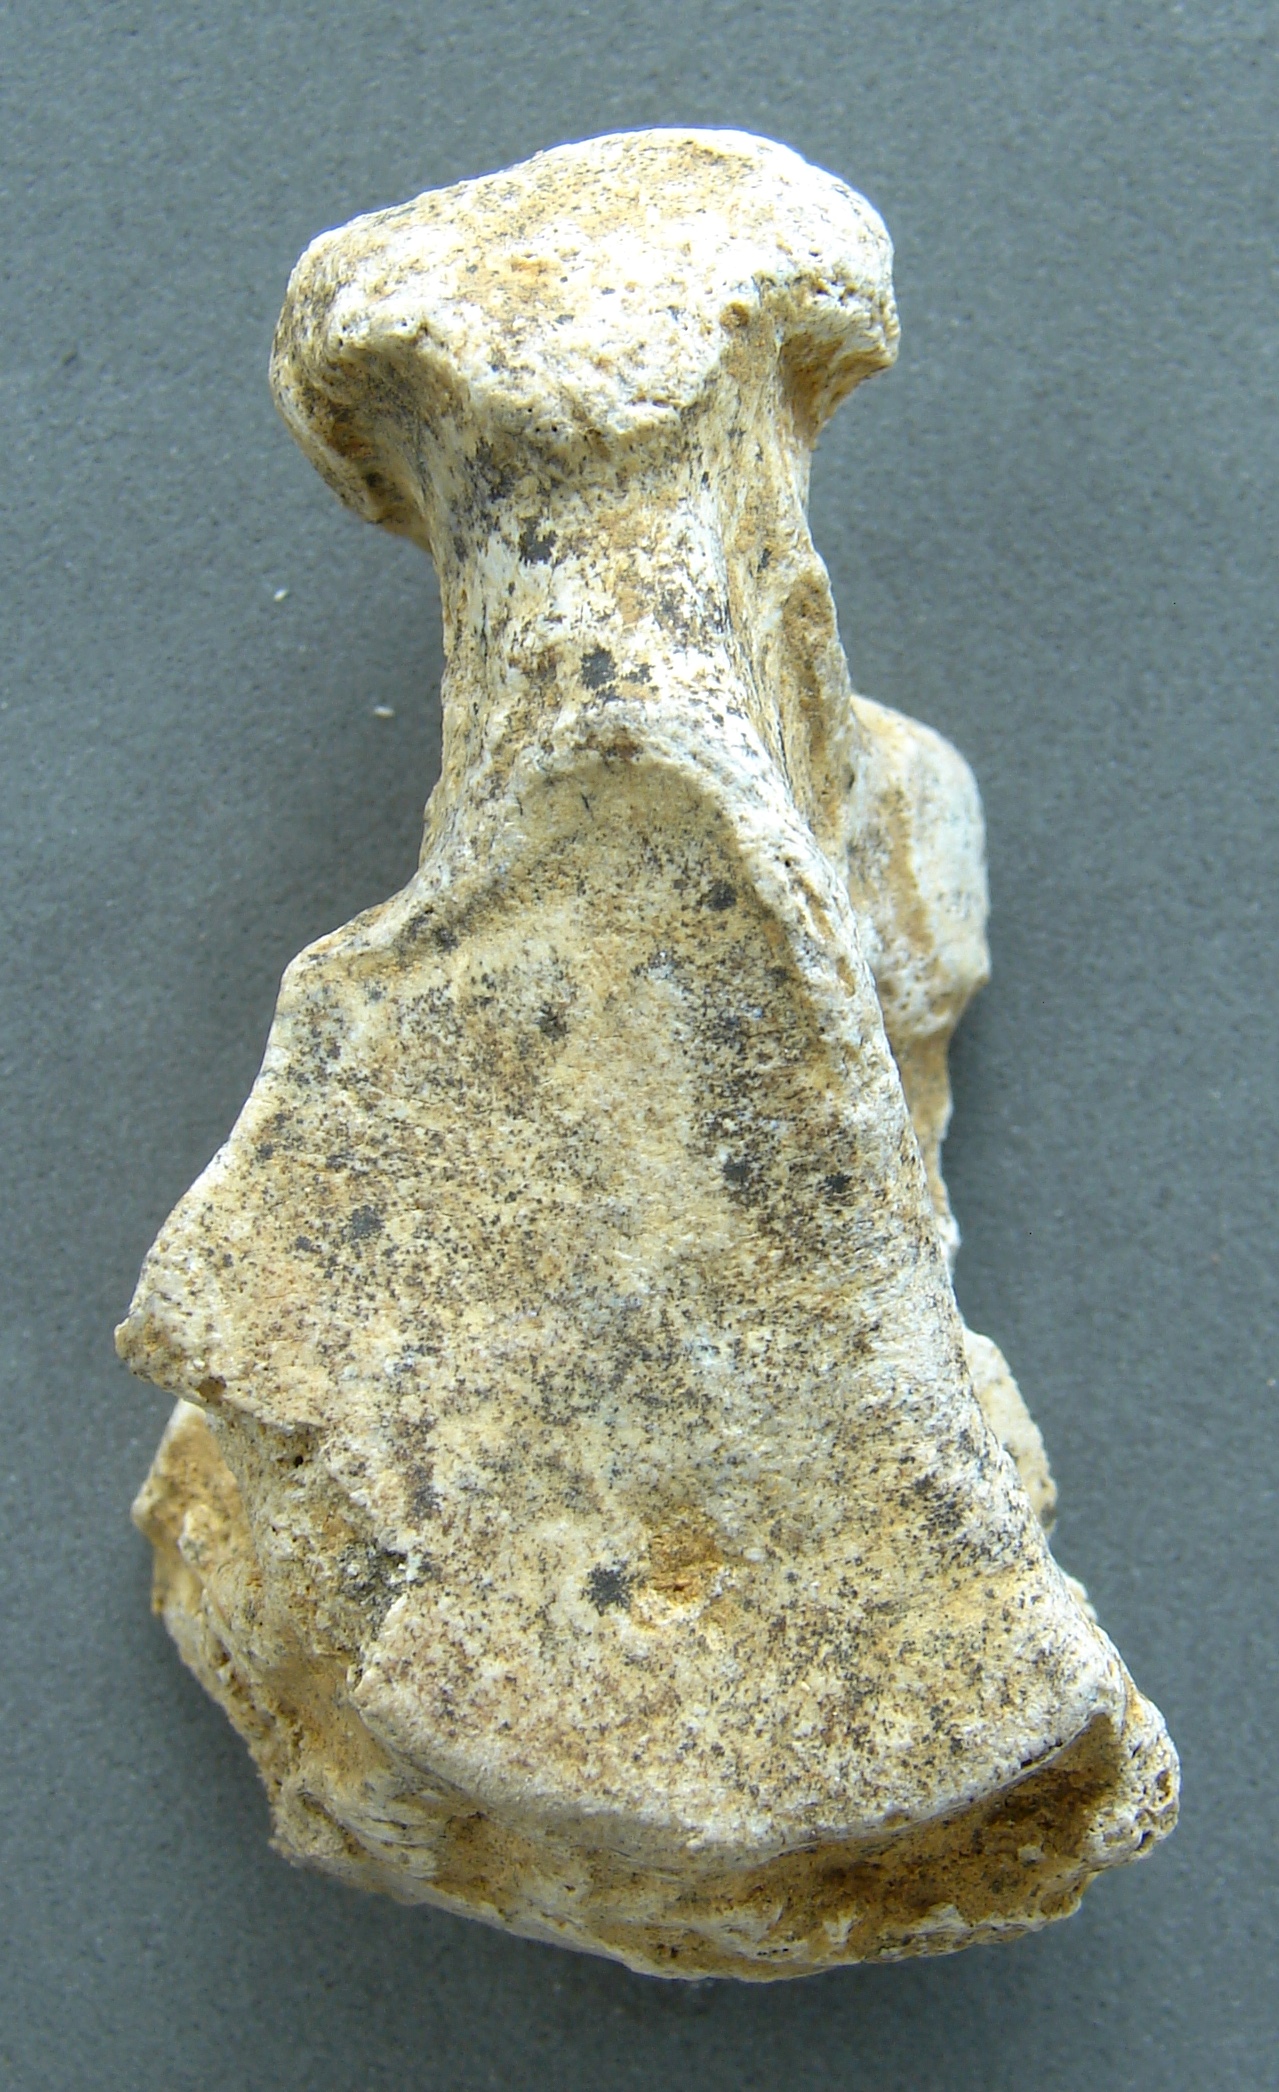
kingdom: Animalia
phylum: Chordata
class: Mammalia
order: Carnivora
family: Felidae
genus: Panthera
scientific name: Panthera leo
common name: Lion
